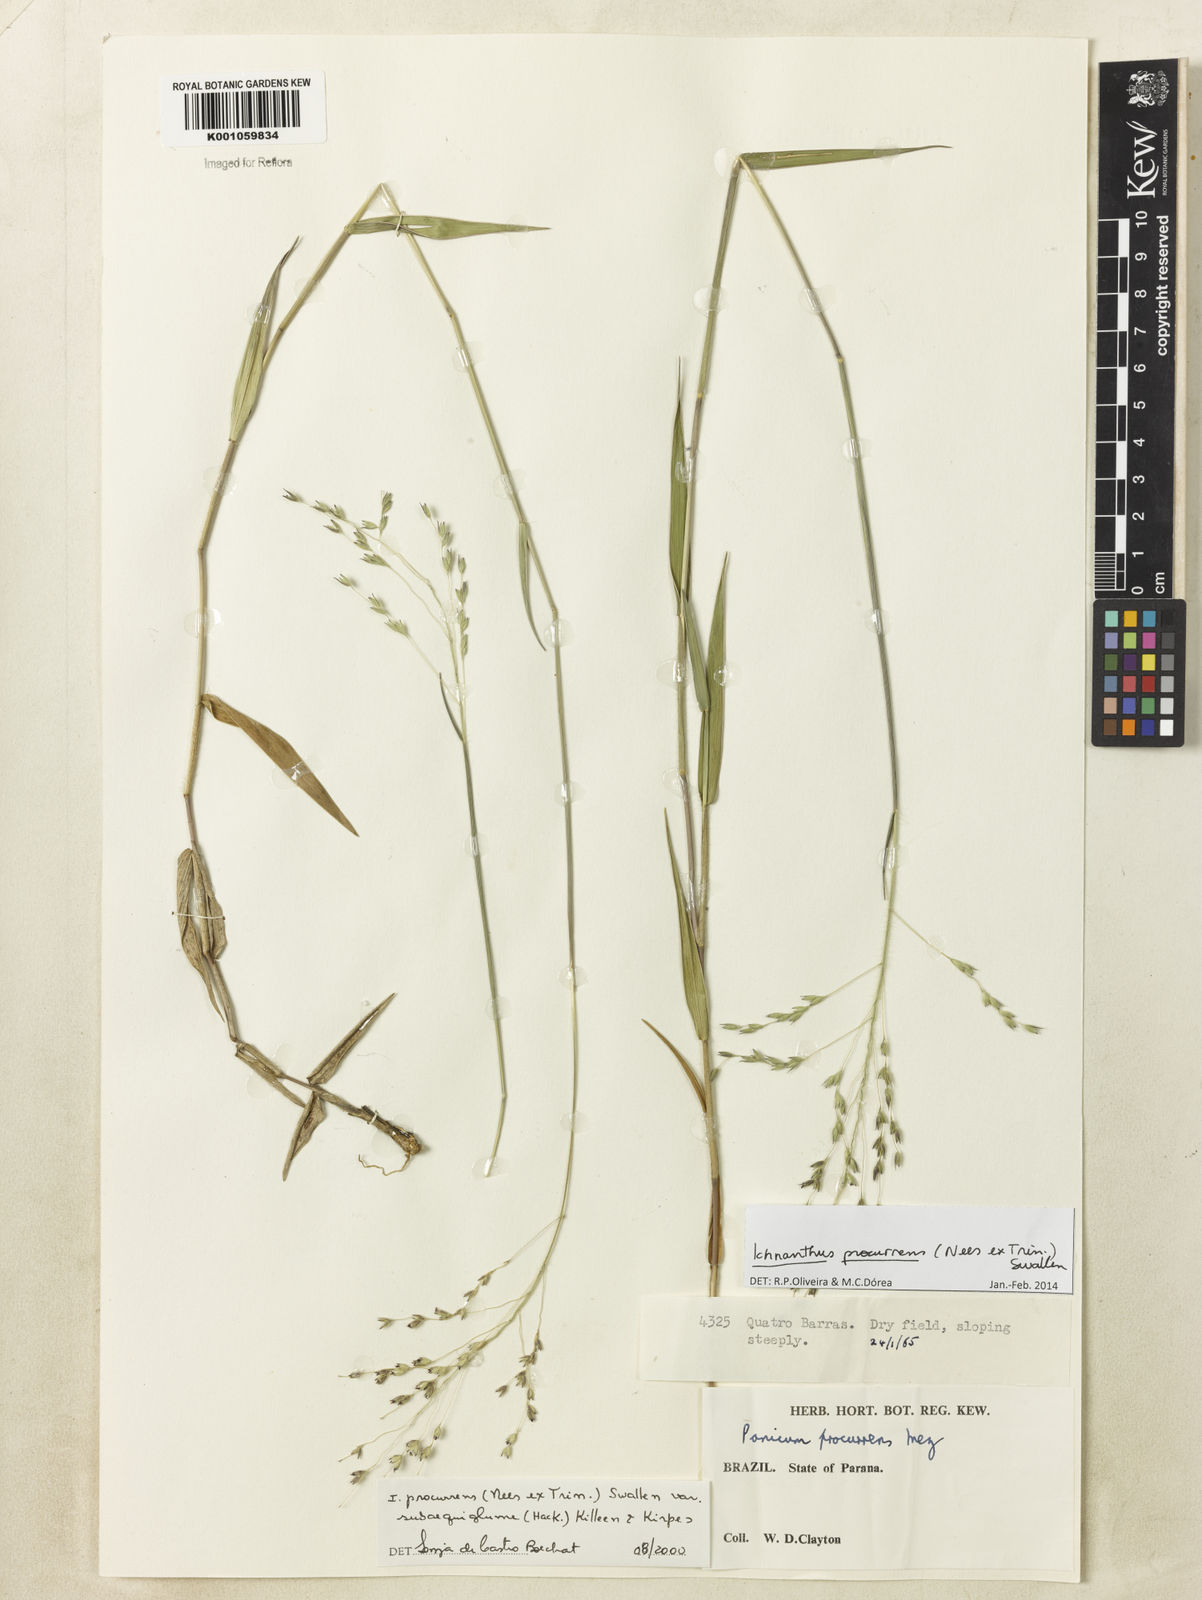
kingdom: Plantae
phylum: Tracheophyta
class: Liliopsida
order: Poales
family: Poaceae
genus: Oedochloa
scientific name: Oedochloa procurrens
